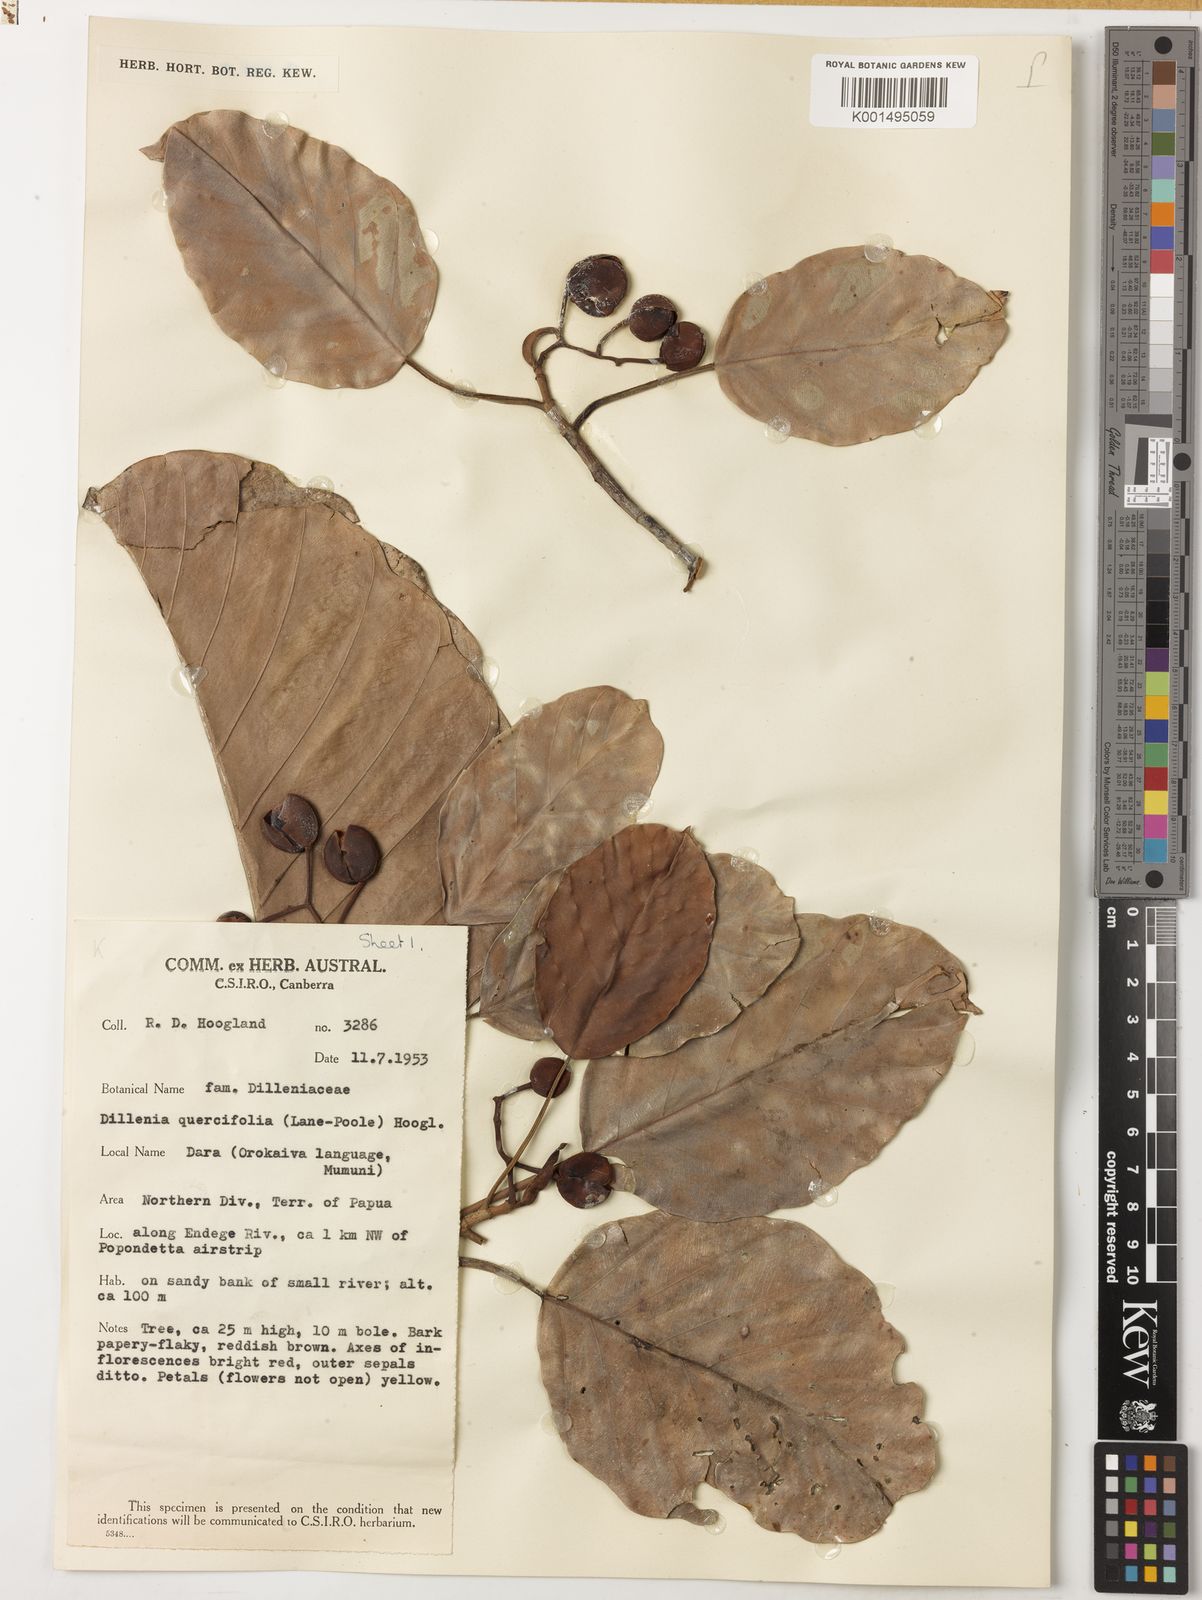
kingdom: Plantae
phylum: Tracheophyta
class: Magnoliopsida
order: Dilleniales
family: Dilleniaceae
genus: Dillenia
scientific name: Dillenia quercifolia
